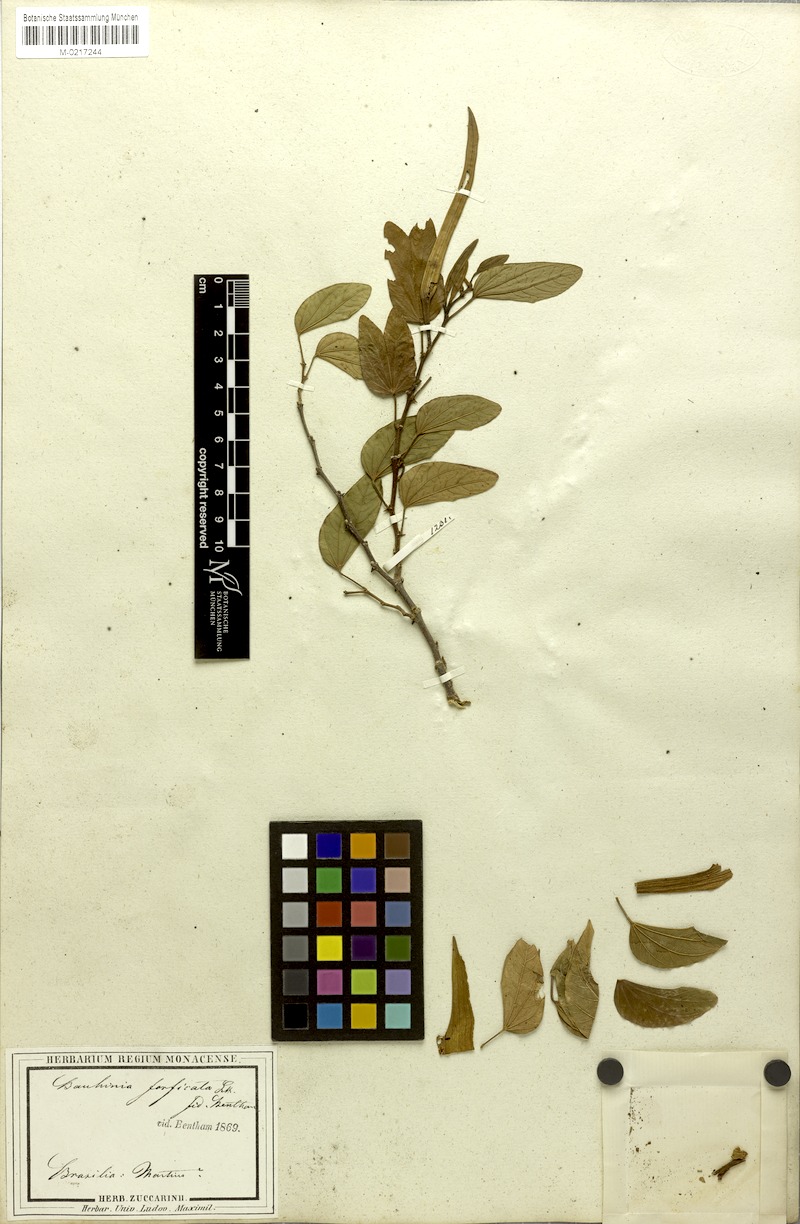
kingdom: Plantae
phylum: Tracheophyta
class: Magnoliopsida
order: Fabales
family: Fabaceae
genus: Bauhinia
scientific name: Bauhinia forficata
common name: Orchid tree
